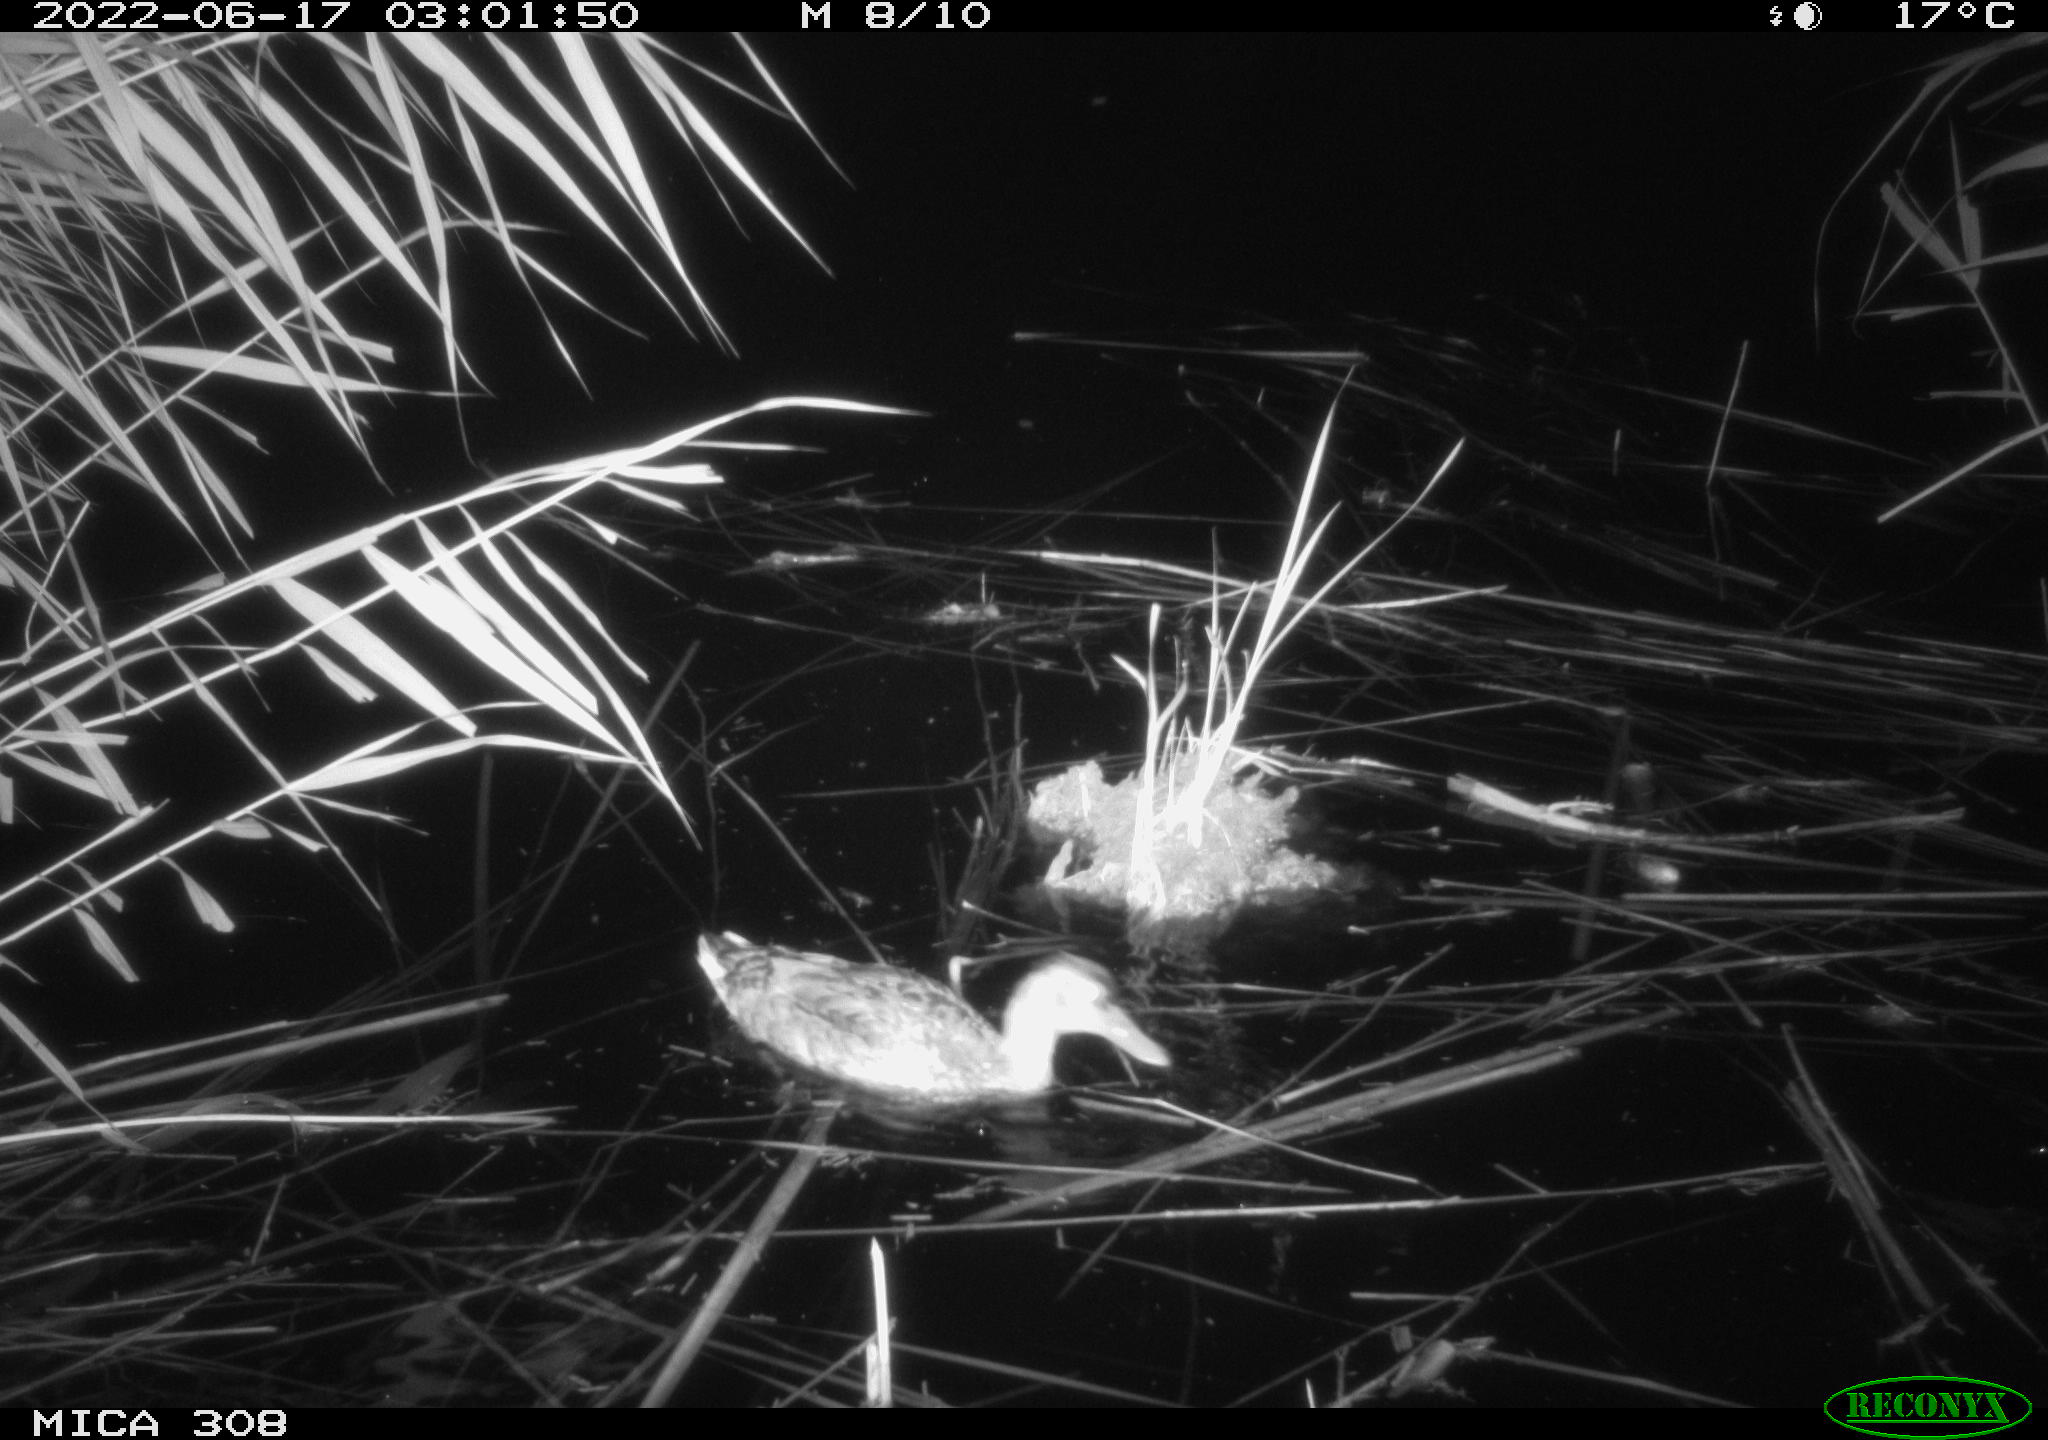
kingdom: Animalia
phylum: Chordata
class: Aves
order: Anseriformes
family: Anatidae
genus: Anas
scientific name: Anas platyrhynchos
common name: Mallard
